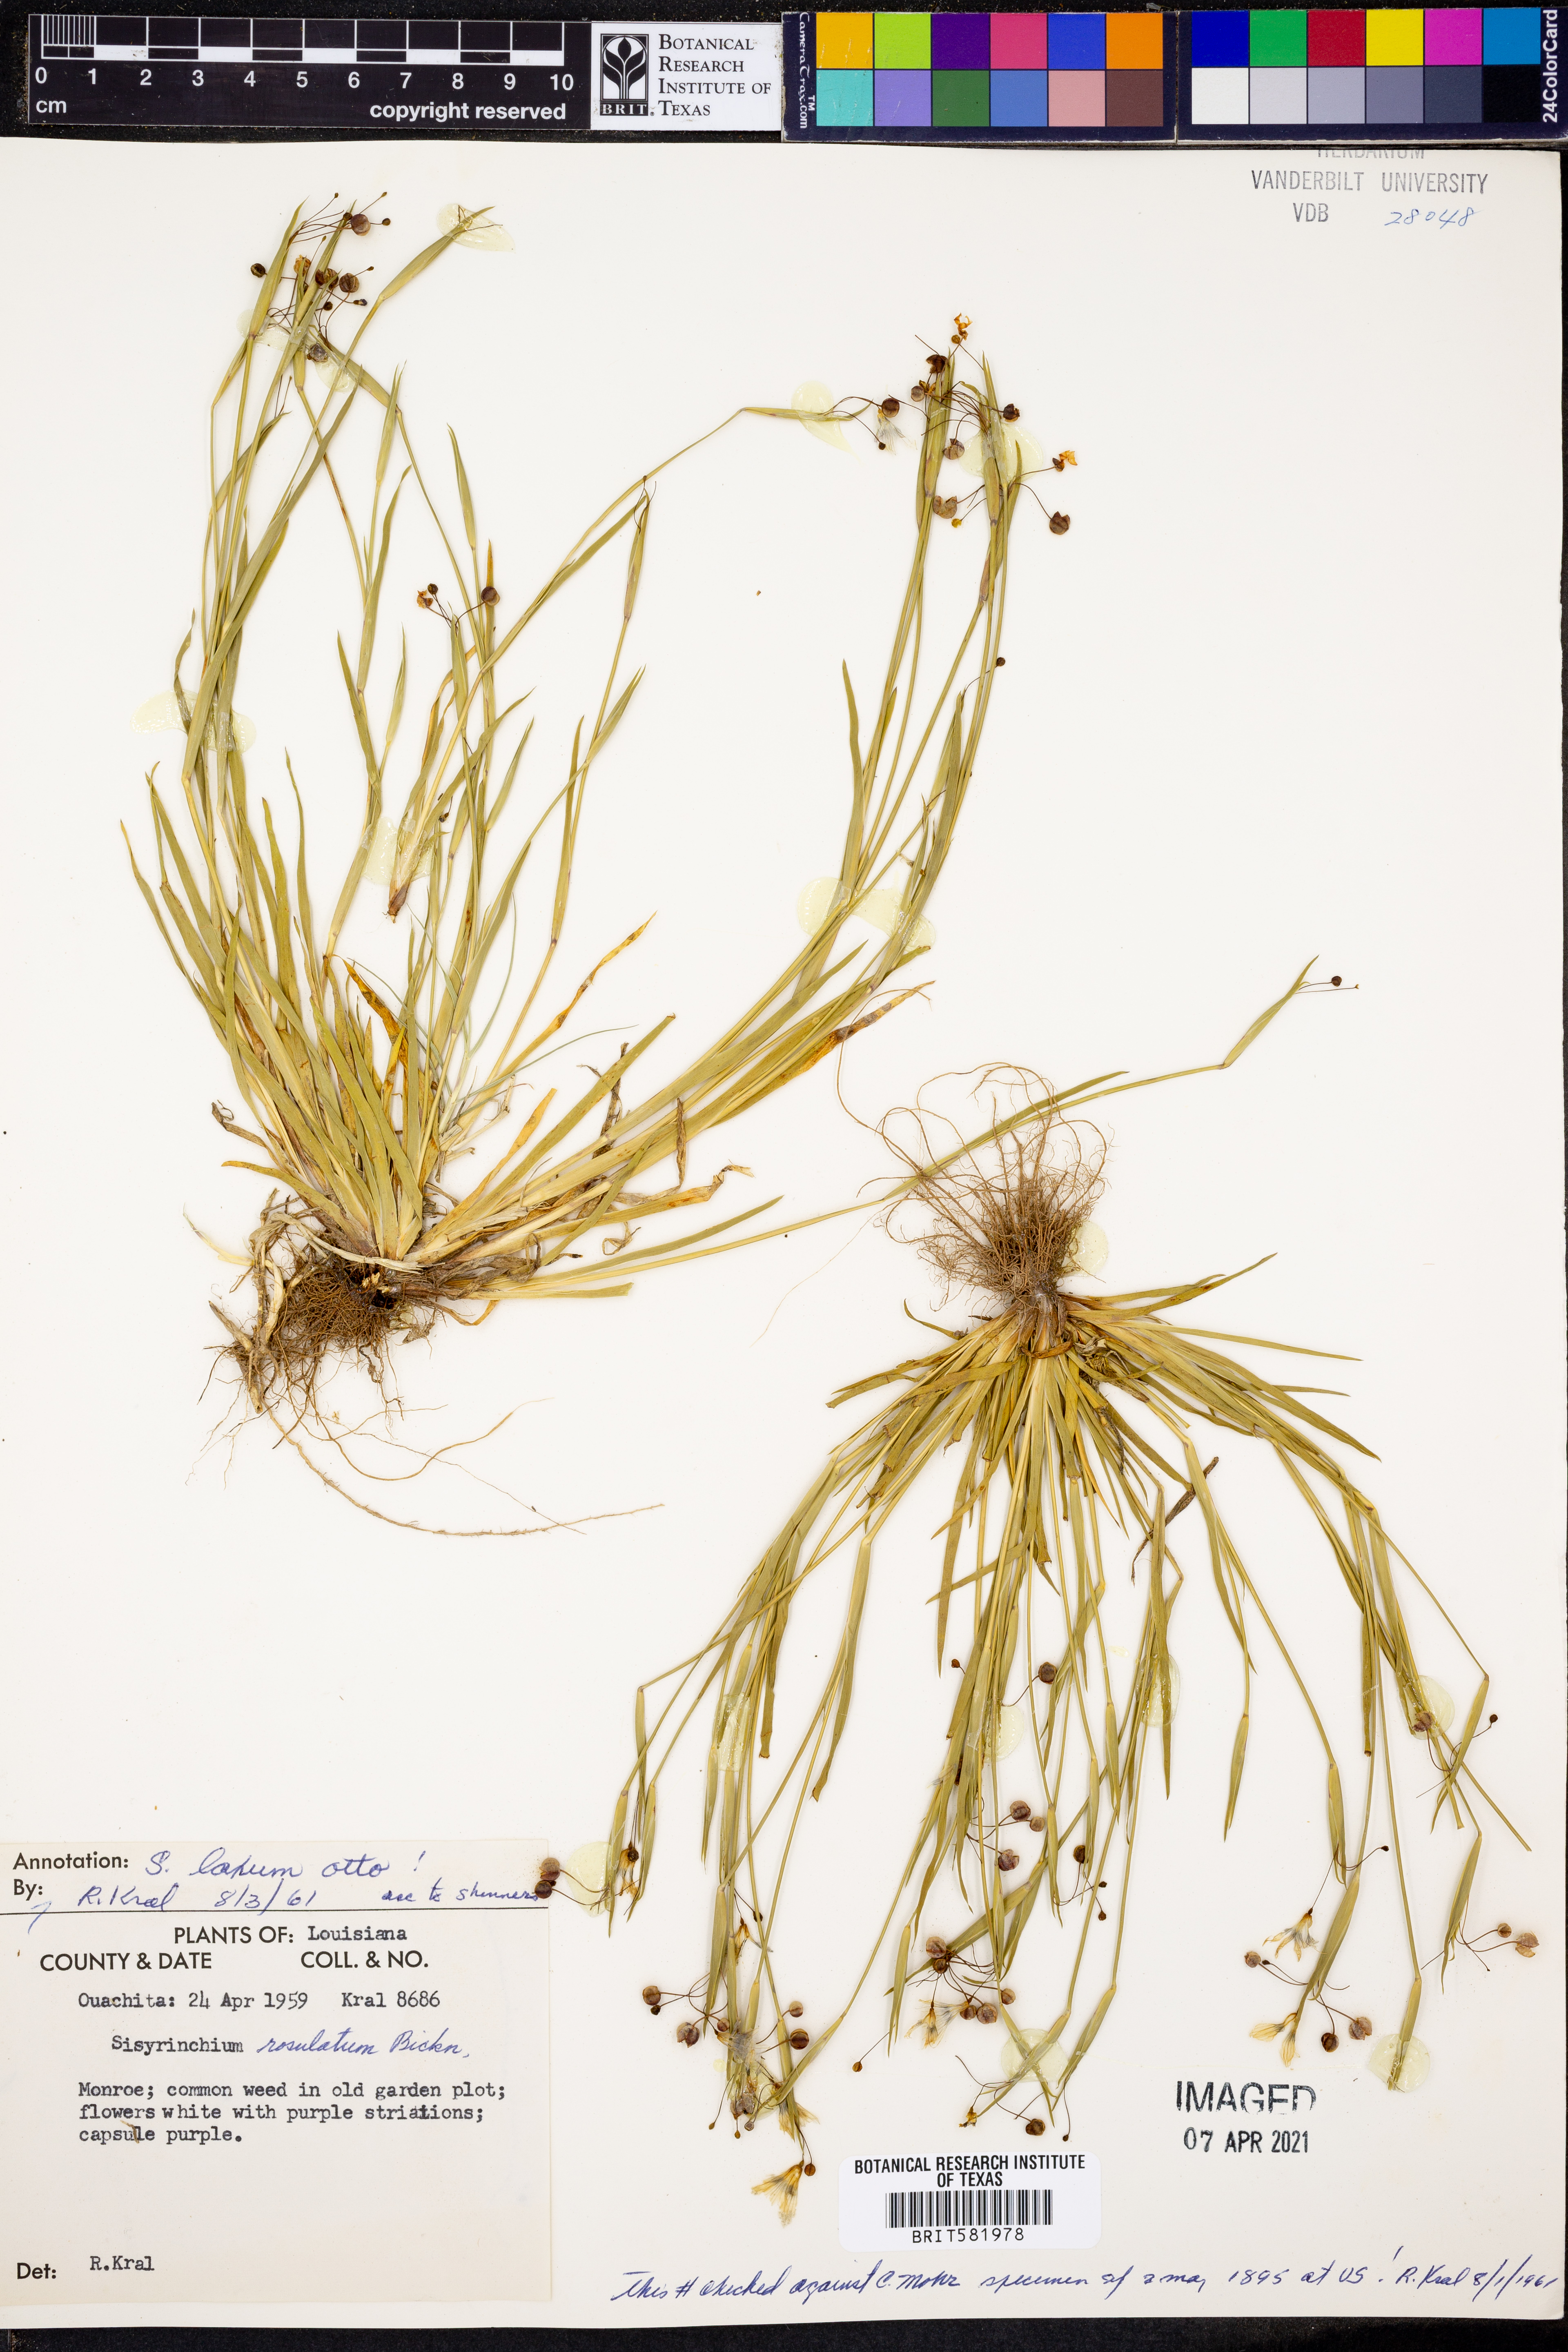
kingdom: Plantae
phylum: Tracheophyta
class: Liliopsida
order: Asparagales
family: Iridaceae
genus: Sisyrinchium
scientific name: Sisyrinchium laxum
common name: Veined yellow-eyed-grass
